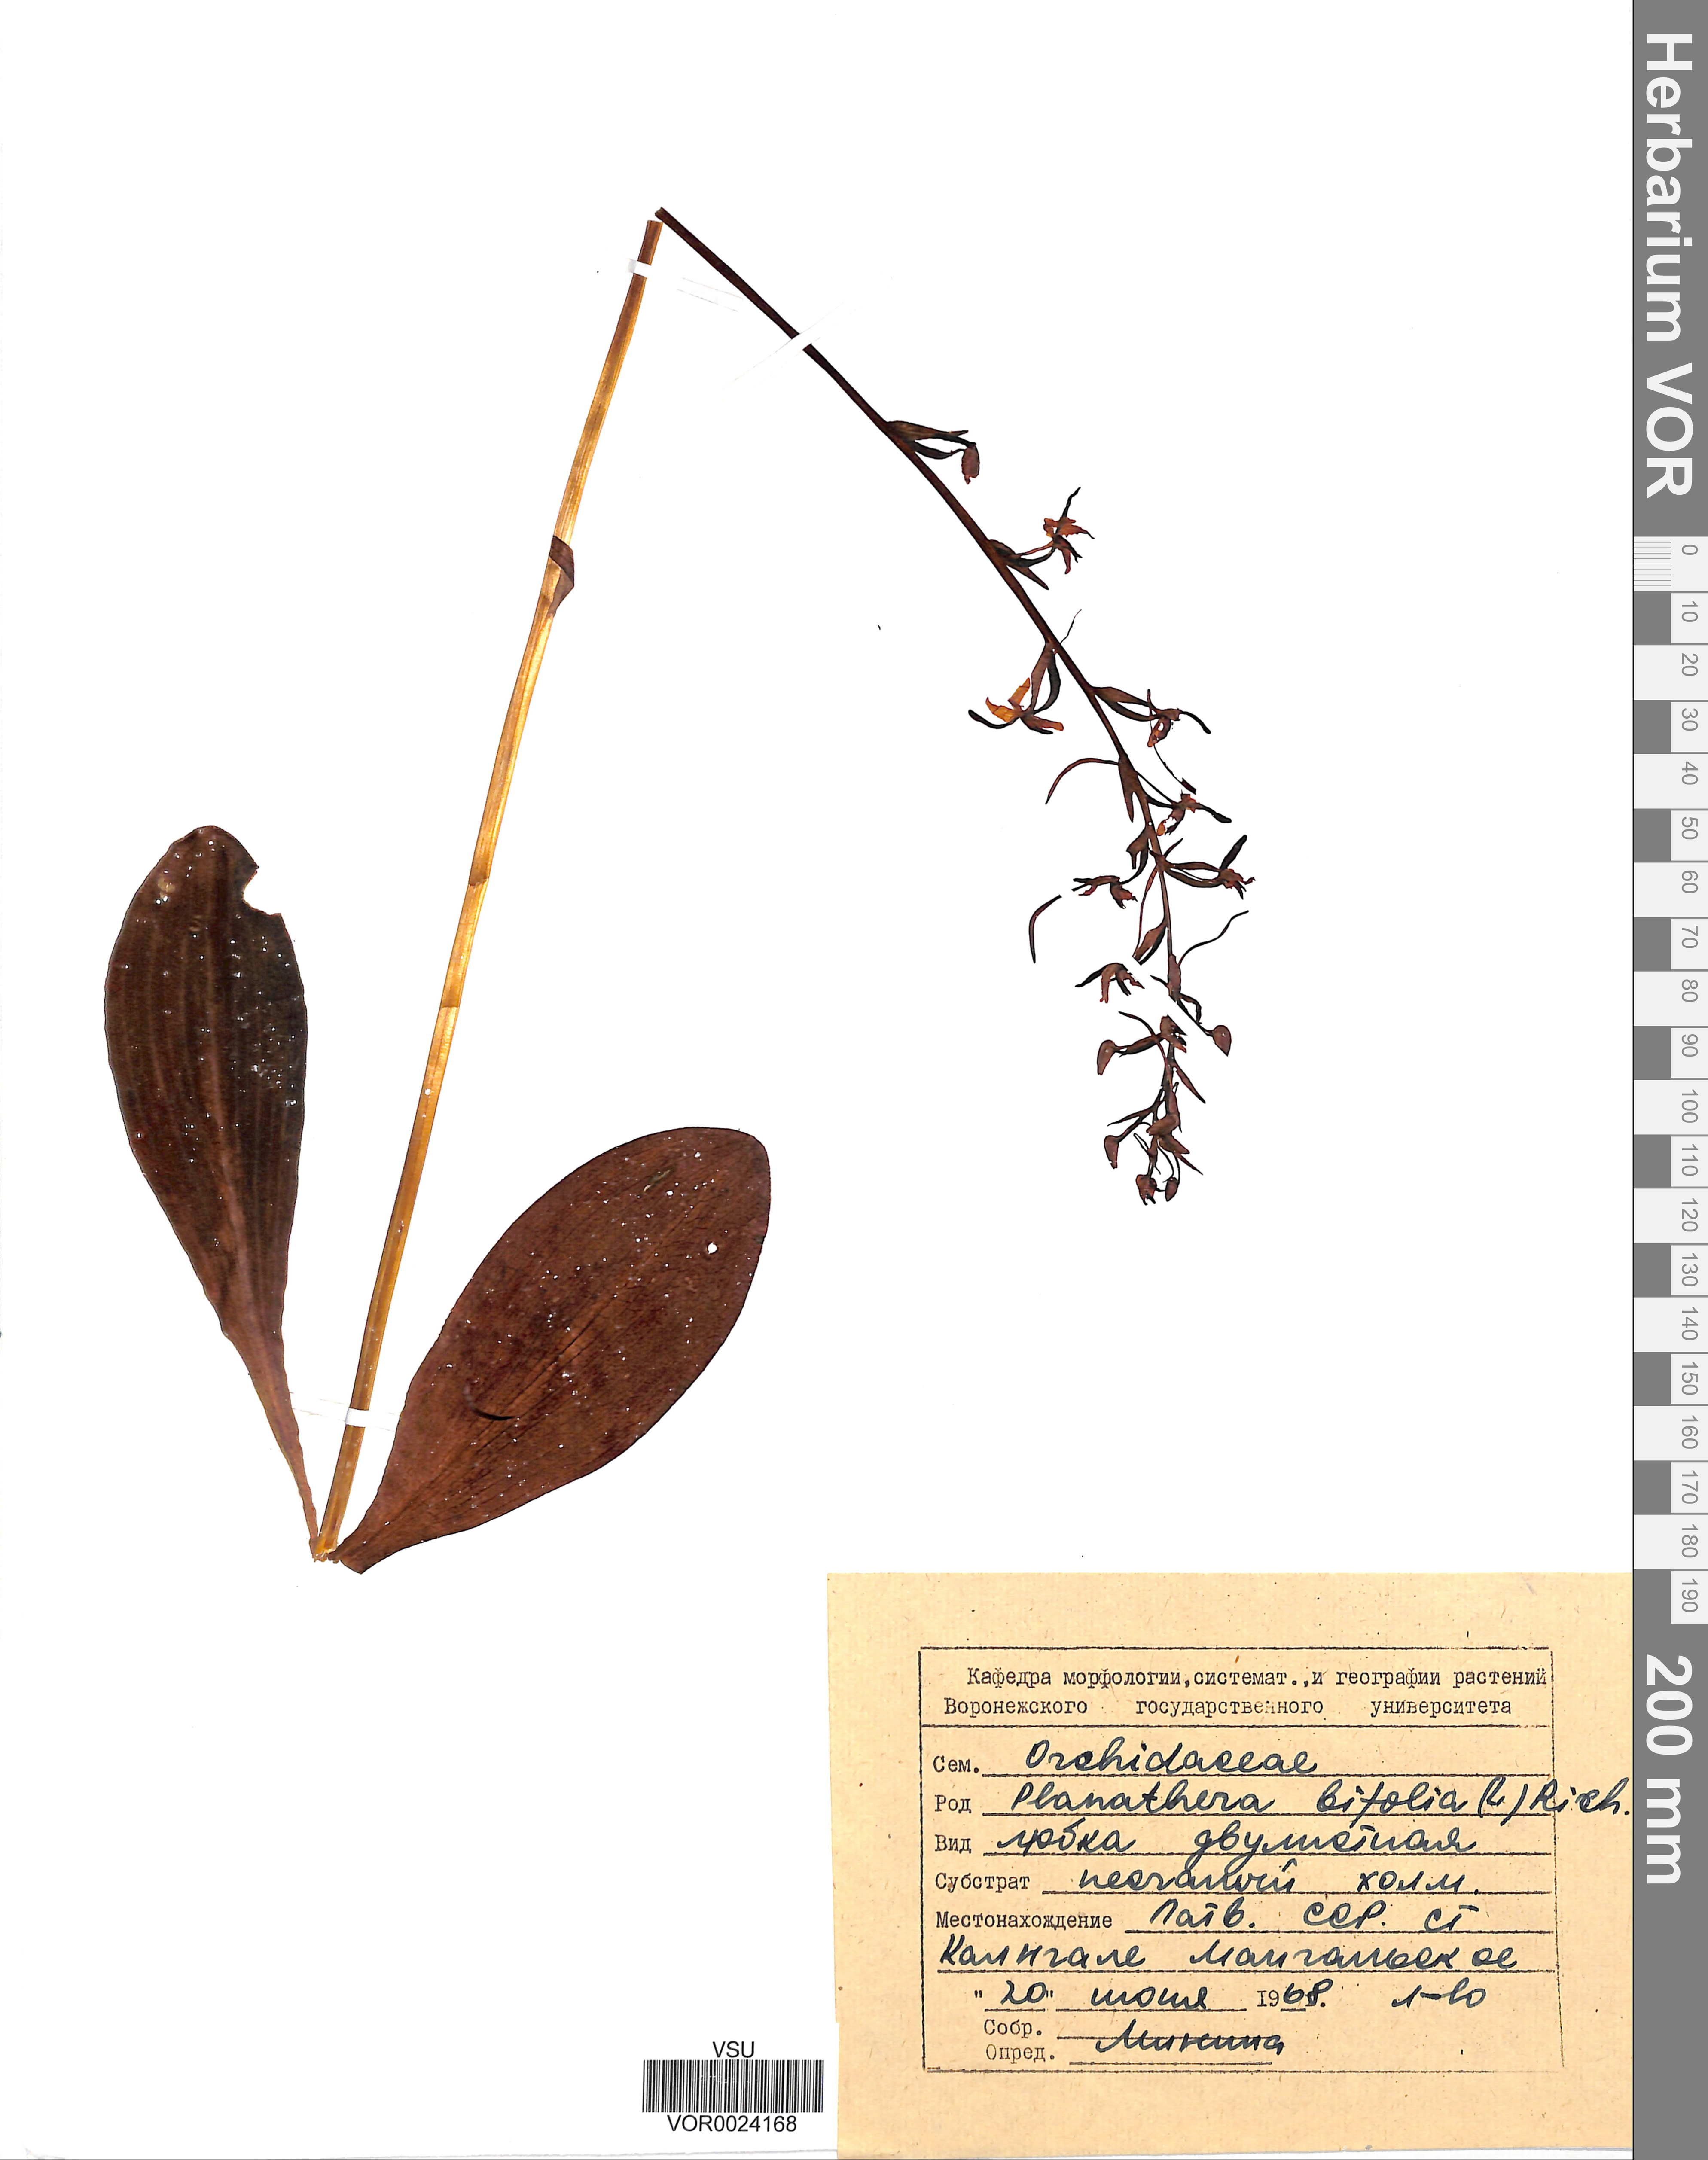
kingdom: Plantae
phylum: Tracheophyta
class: Liliopsida
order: Asparagales
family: Orchidaceae
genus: Platanthera
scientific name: Platanthera bifolia
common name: Lesser butterfly-orchid
